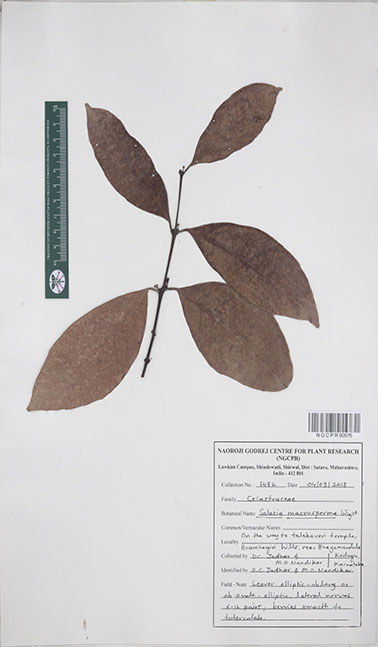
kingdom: Plantae
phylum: Tracheophyta
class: Magnoliopsida
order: Celastrales
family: Celastraceae
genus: Salacia
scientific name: Salacia macrosperma
